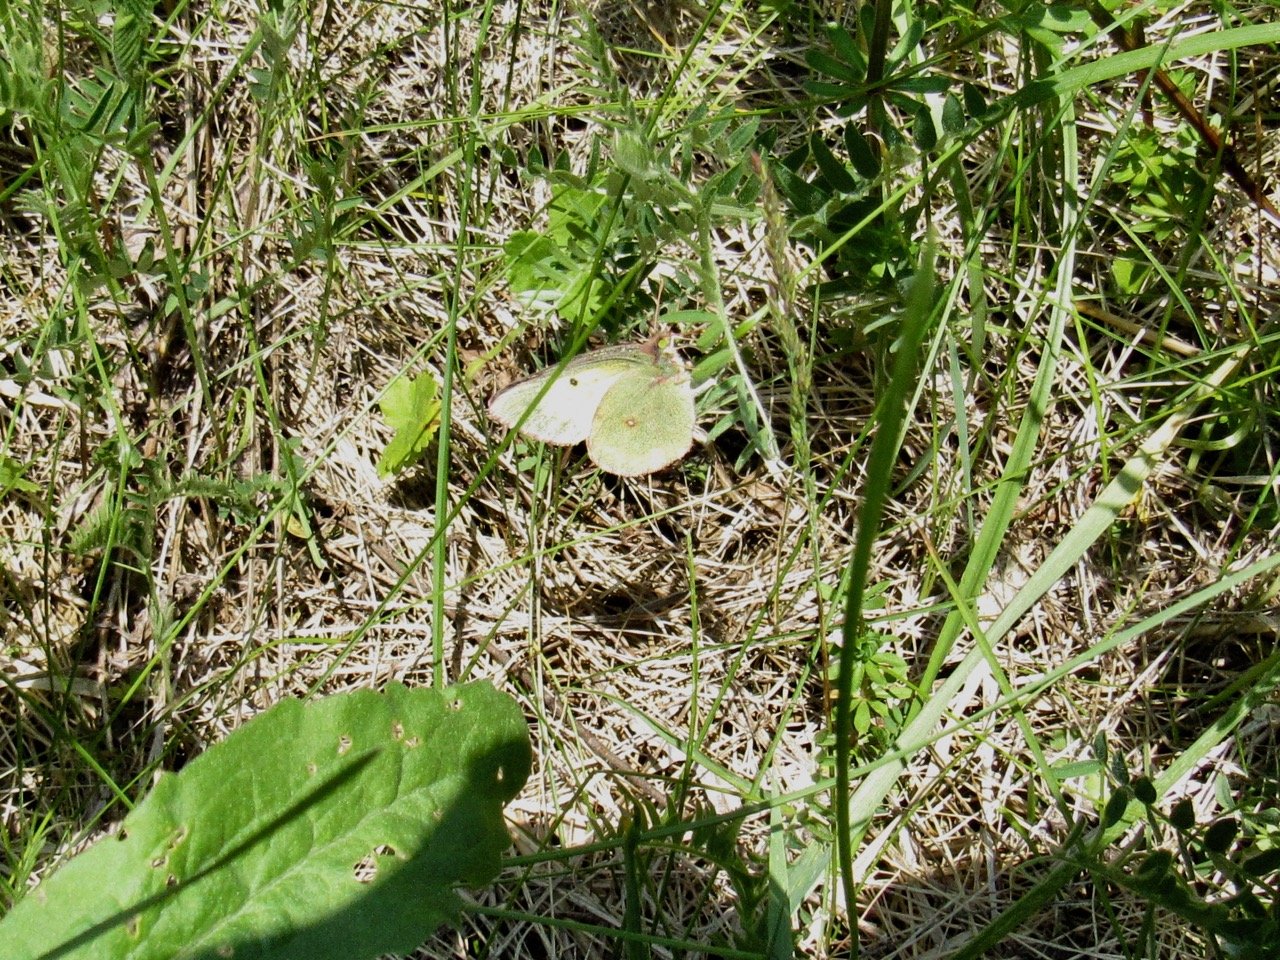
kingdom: Animalia
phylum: Arthropoda
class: Insecta
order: Lepidoptera
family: Pieridae
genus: Colias
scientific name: Colias philodice
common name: Clouded Sulphur
